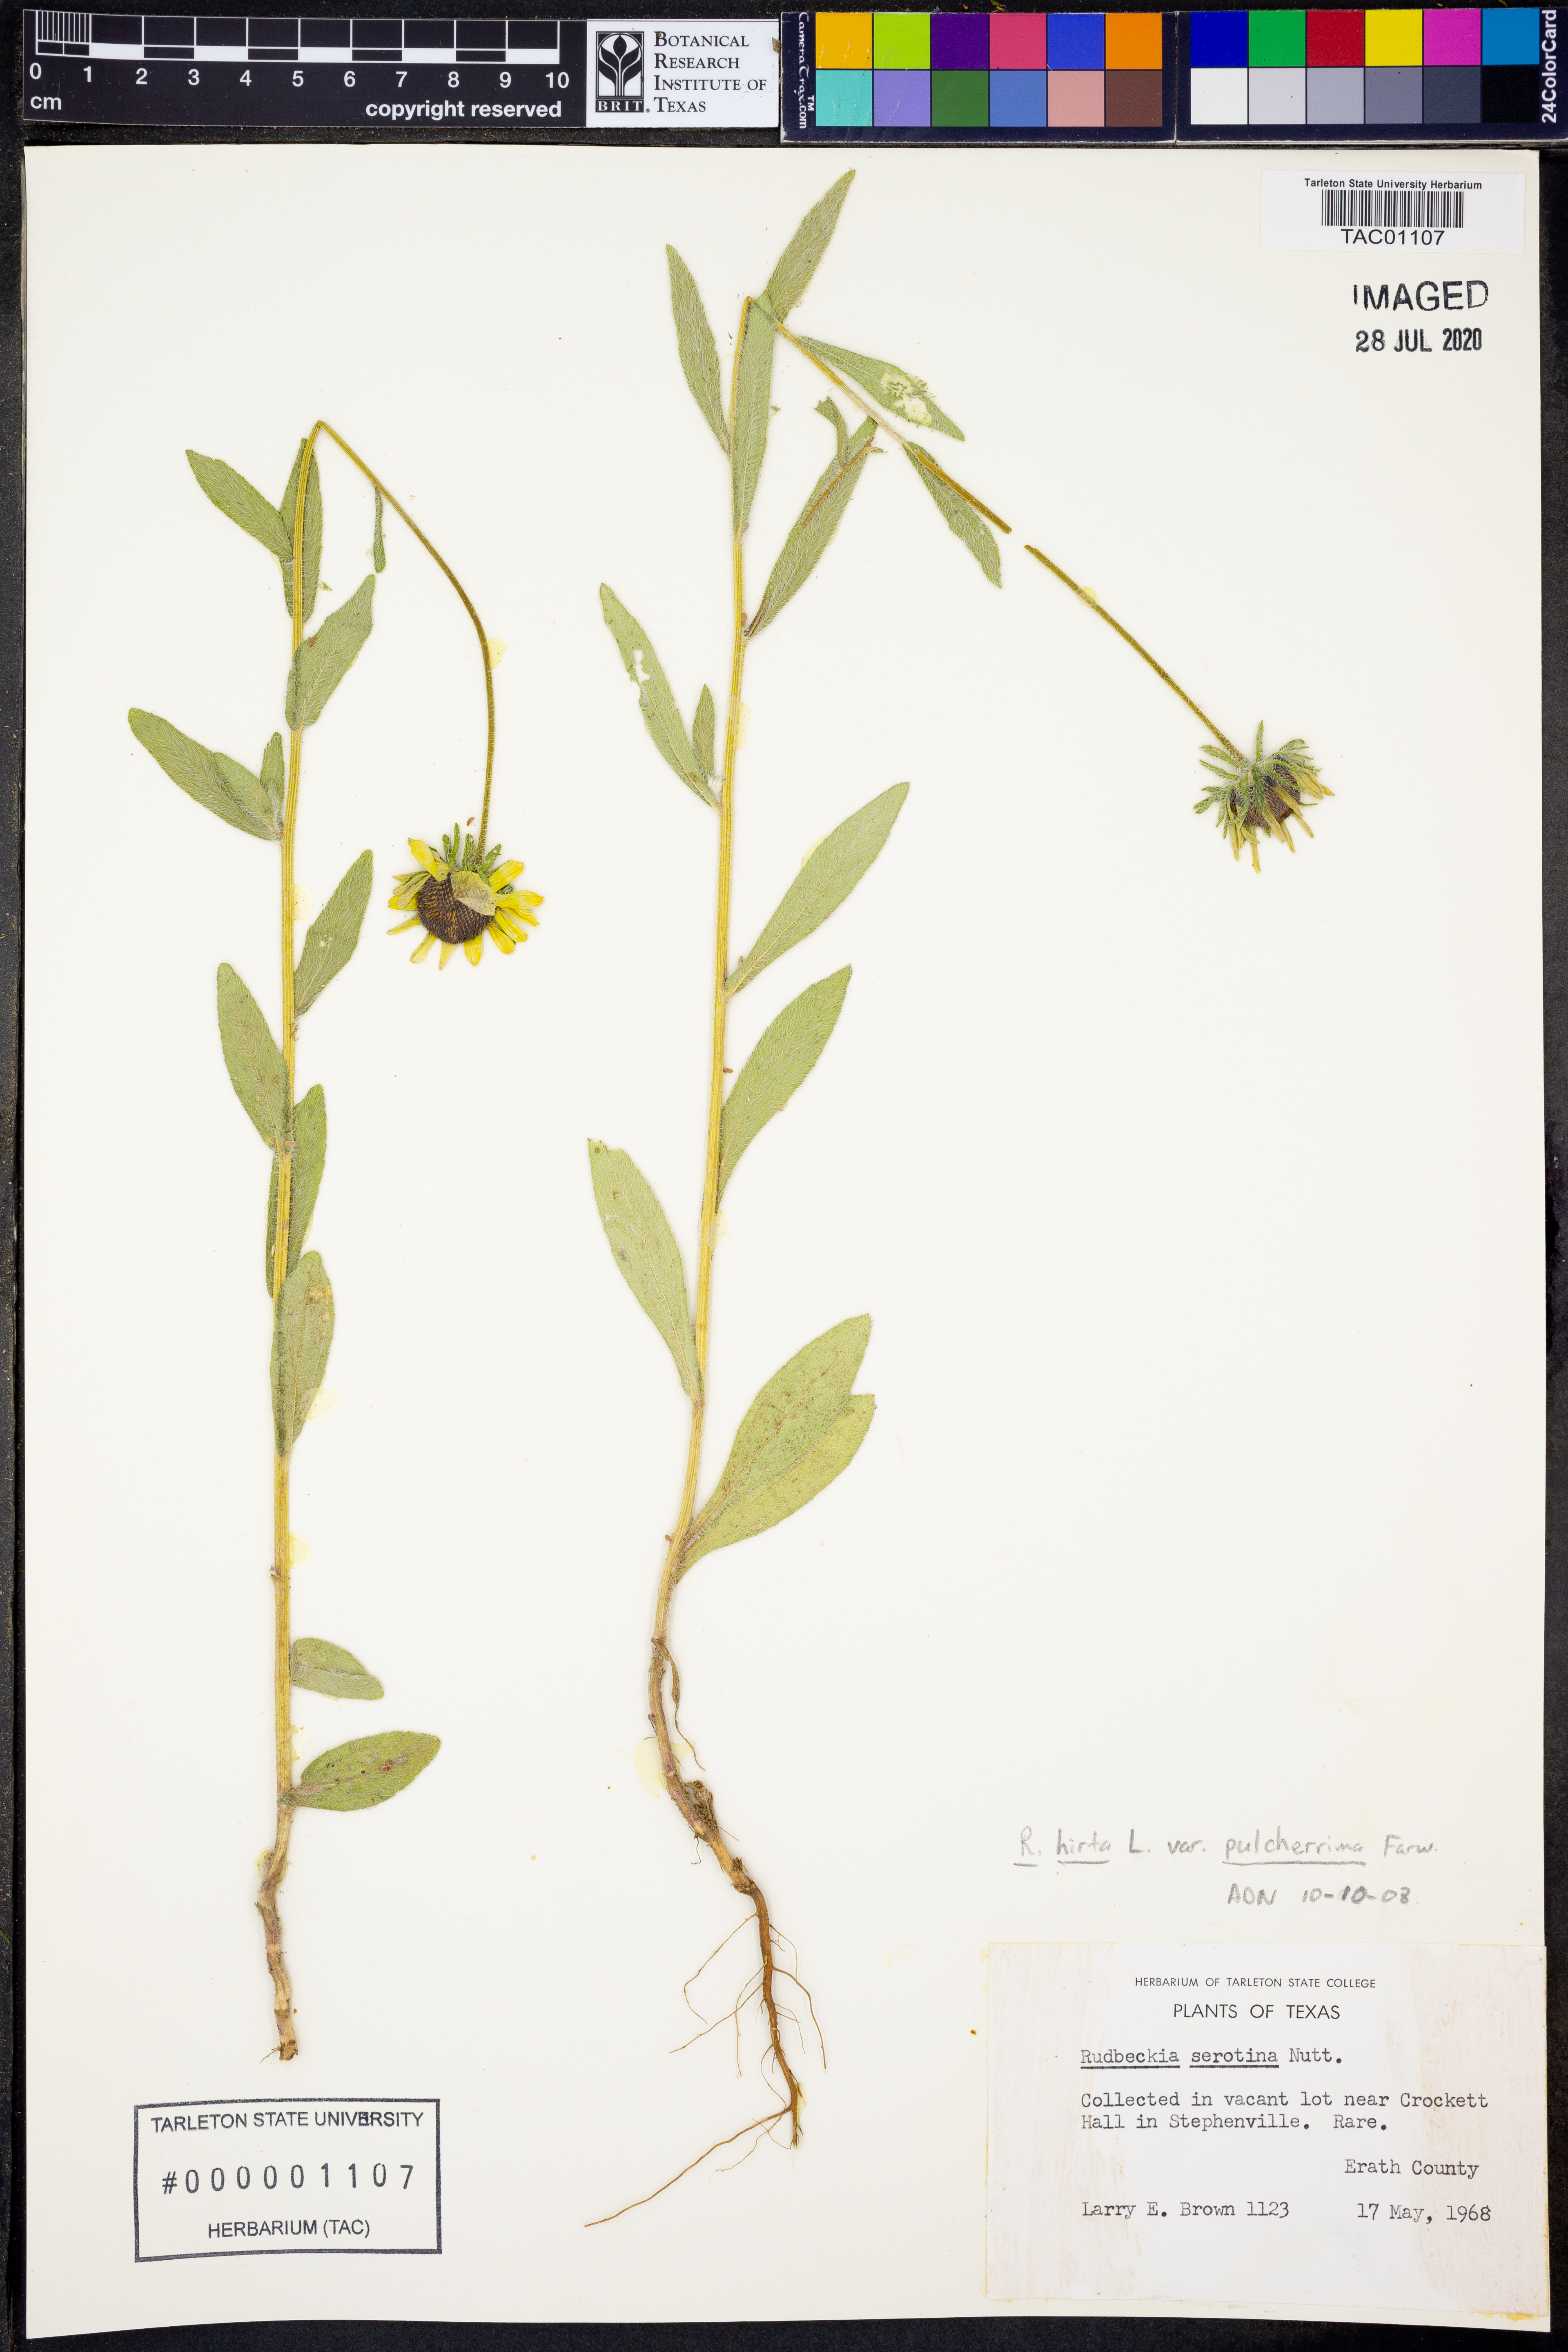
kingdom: Plantae
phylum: Tracheophyta
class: Magnoliopsida
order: Asterales
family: Asteraceae
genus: Rudbeckia
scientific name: Rudbeckia hirta
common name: Black-eyed-susan
